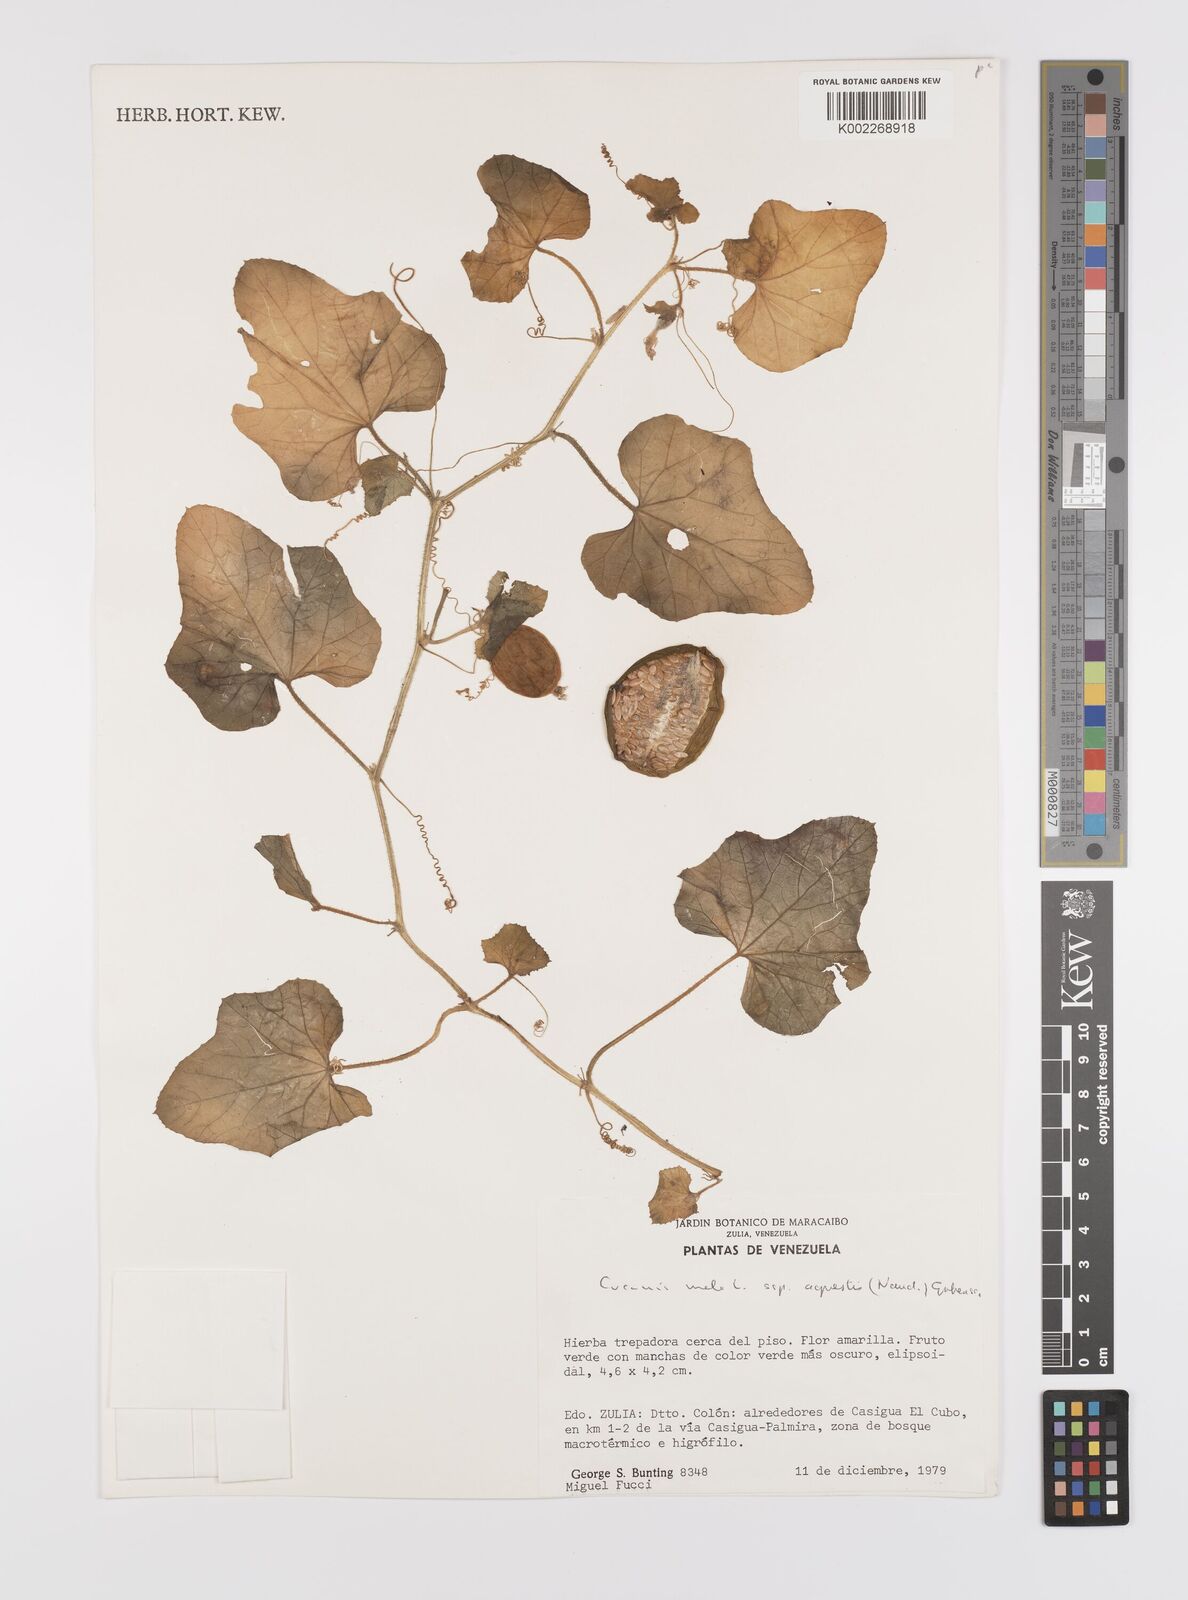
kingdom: Plantae
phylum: Tracheophyta
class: Magnoliopsida
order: Cucurbitales
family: Cucurbitaceae
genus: Cucumis
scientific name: Cucumis melo
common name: Melon
